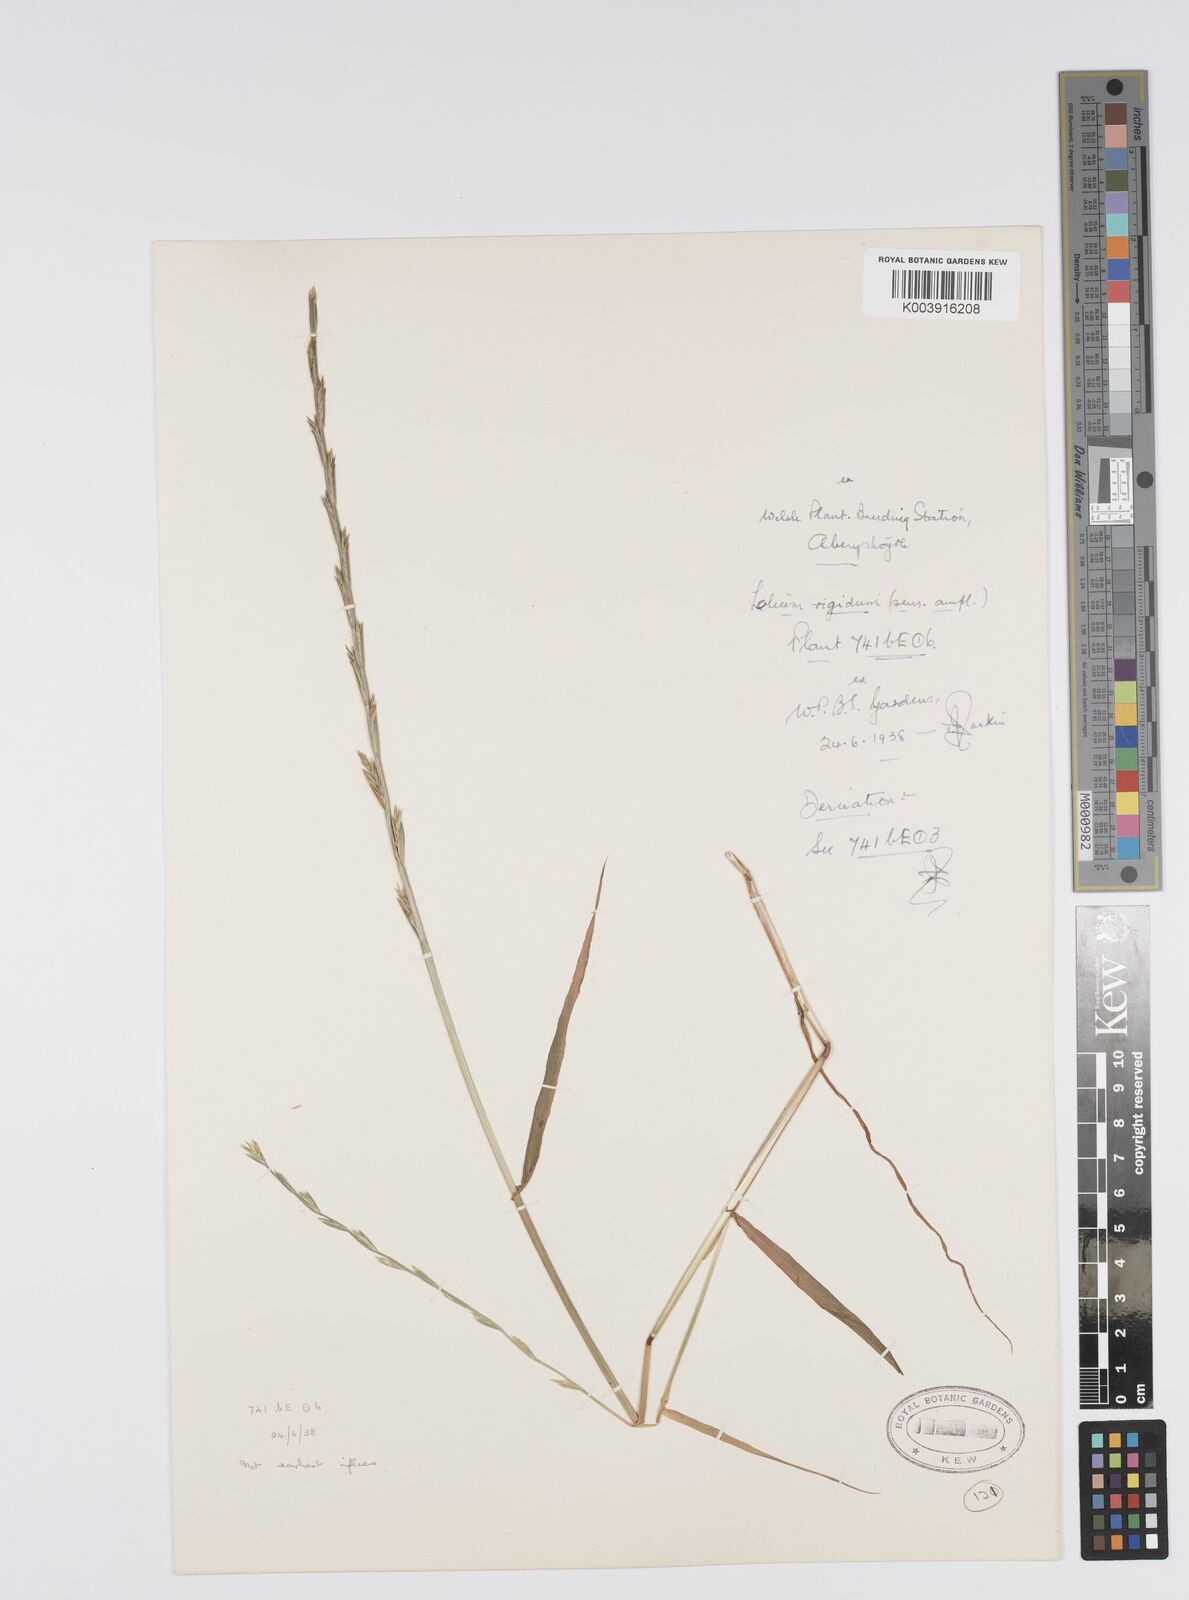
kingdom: Plantae
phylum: Tracheophyta
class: Liliopsida
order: Poales
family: Poaceae
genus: Lolium
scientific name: Lolium rigidum
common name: Wimmera ryegrass
